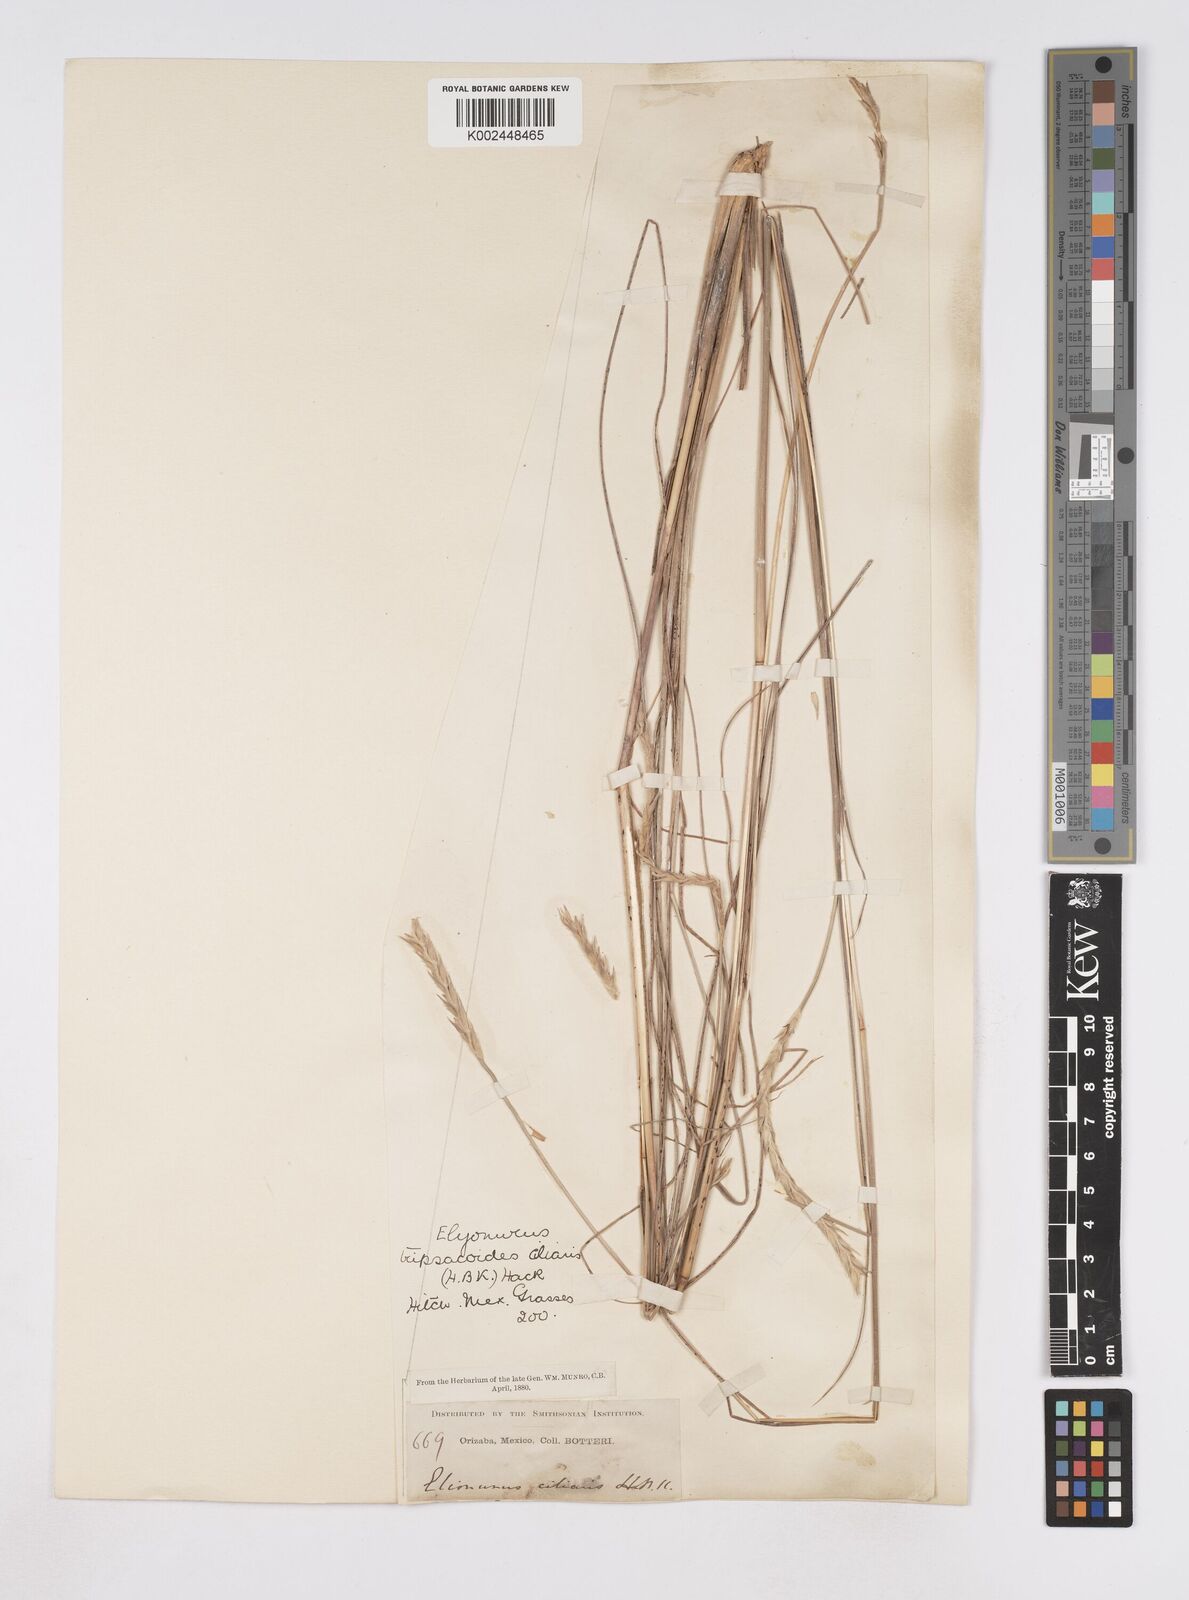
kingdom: Plantae
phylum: Tracheophyta
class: Liliopsida
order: Poales
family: Poaceae
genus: Elionurus
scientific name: Elionurus ciliaris
